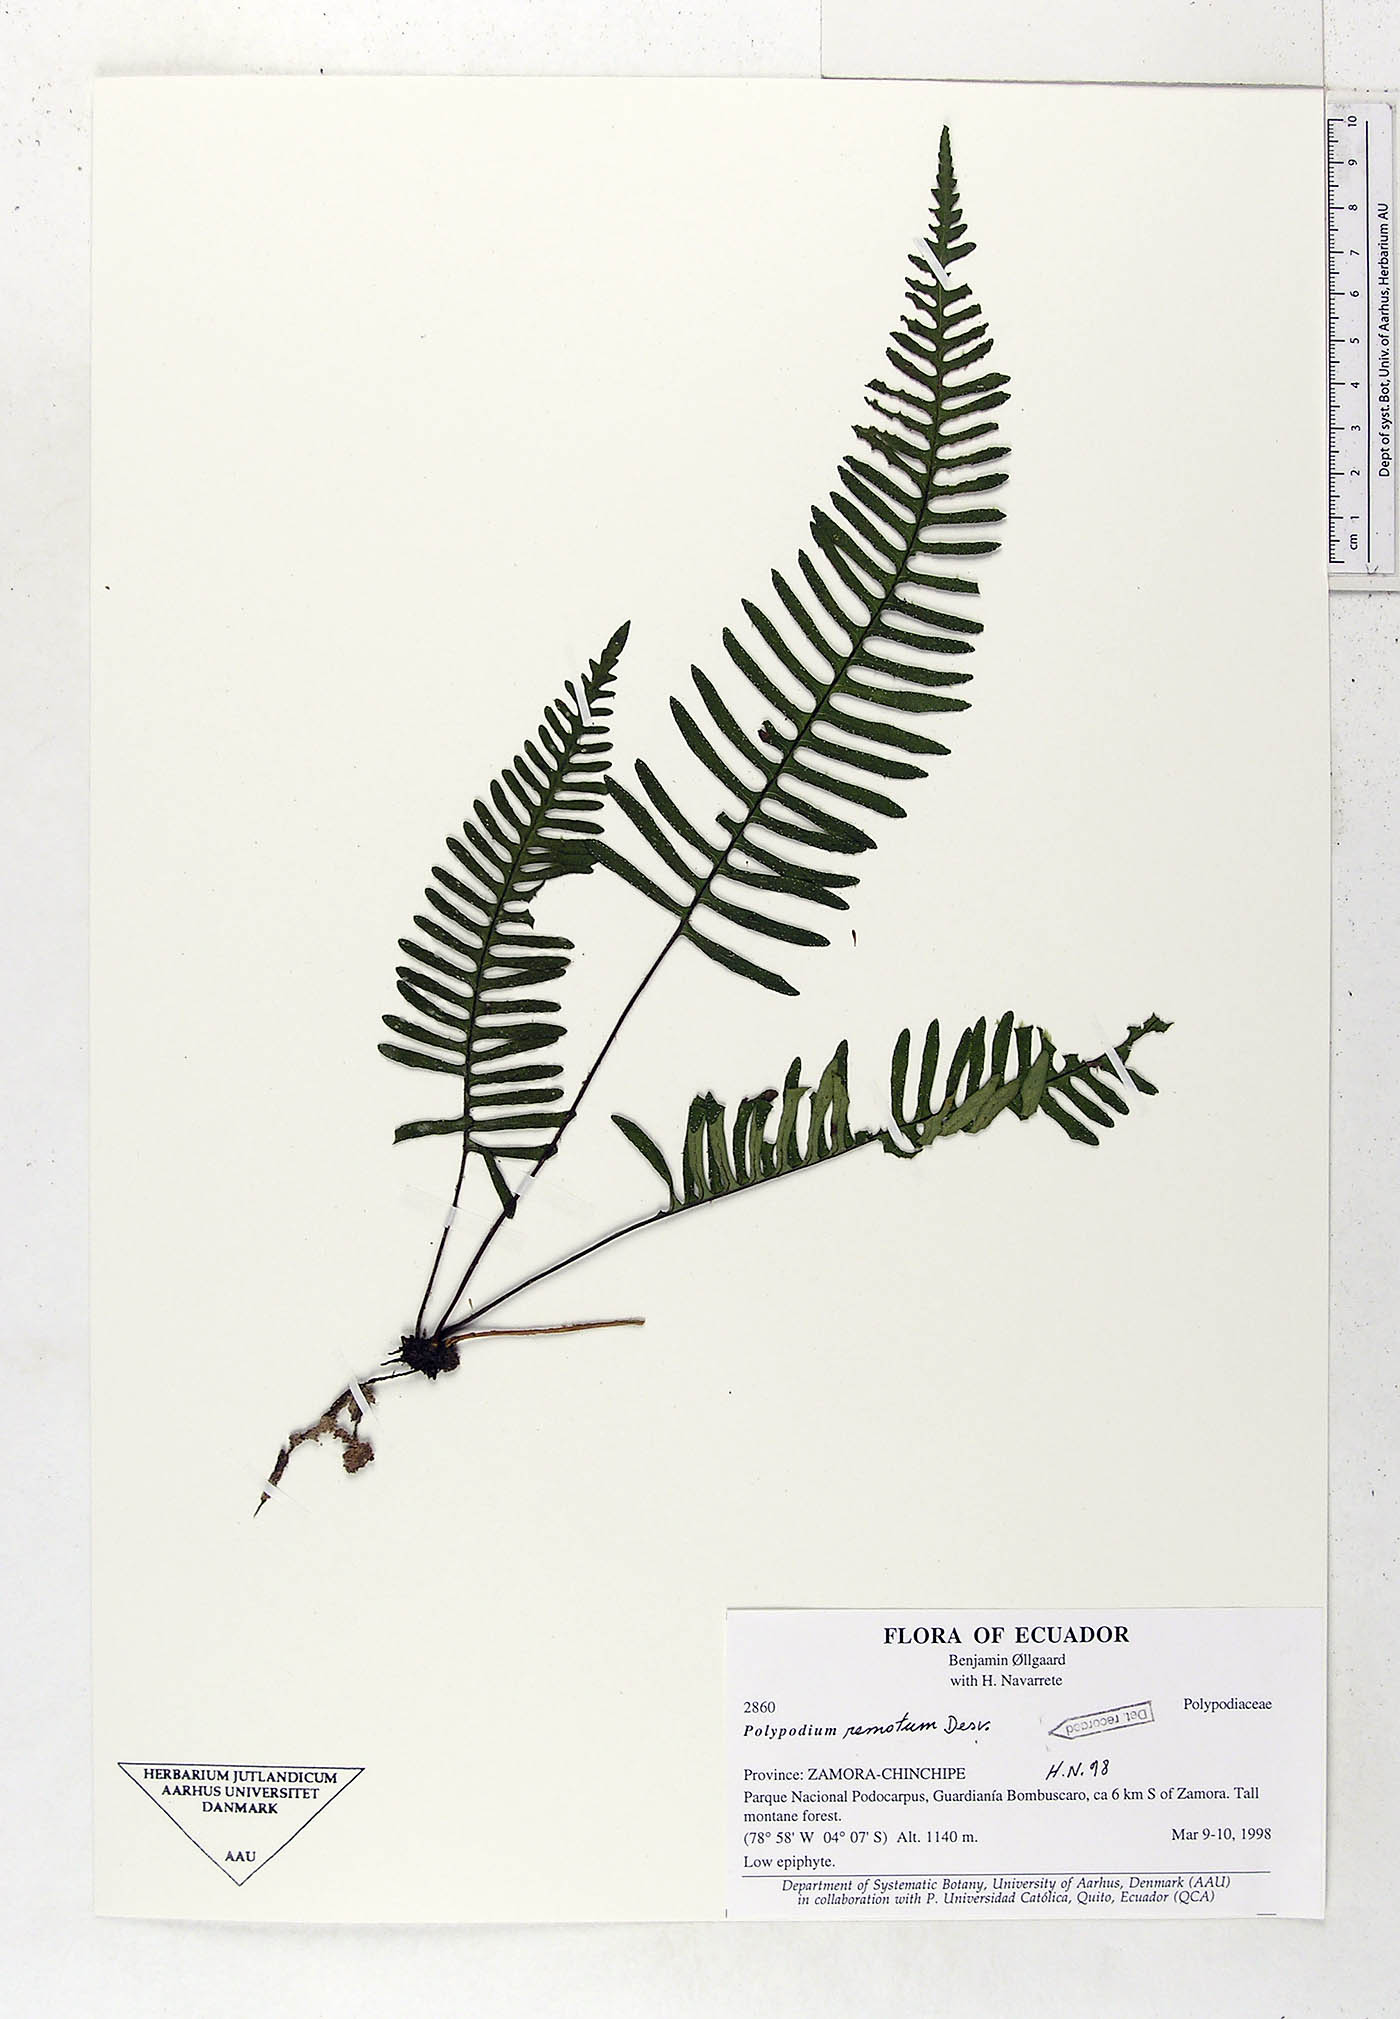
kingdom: Plantae
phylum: Tracheophyta
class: Polypodiopsida
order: Polypodiales
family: Polypodiaceae
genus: Pleopeltis
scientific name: Pleopeltis remota
